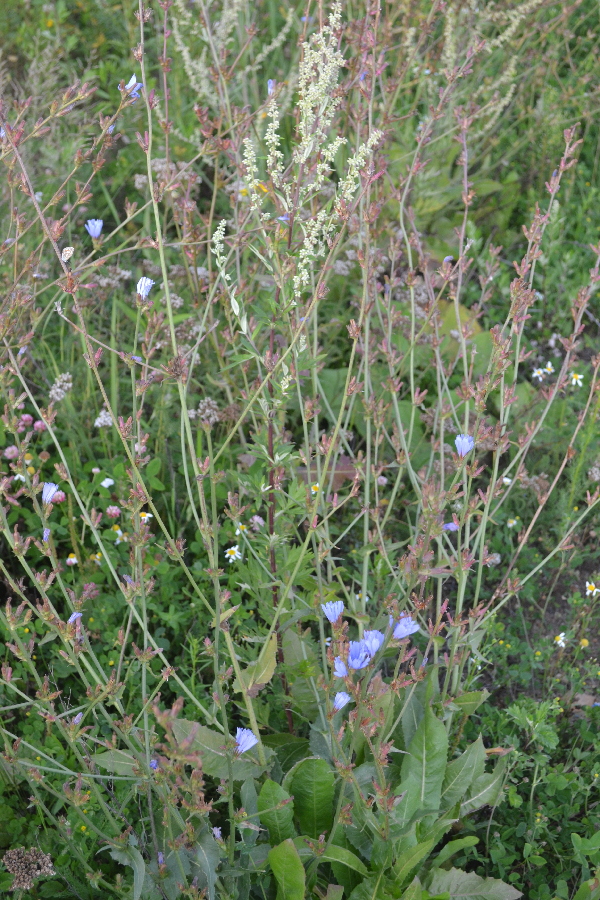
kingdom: Plantae
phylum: Tracheophyta
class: Magnoliopsida
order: Asterales
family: Asteraceae
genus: Cichorium
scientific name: Cichorium intybus
